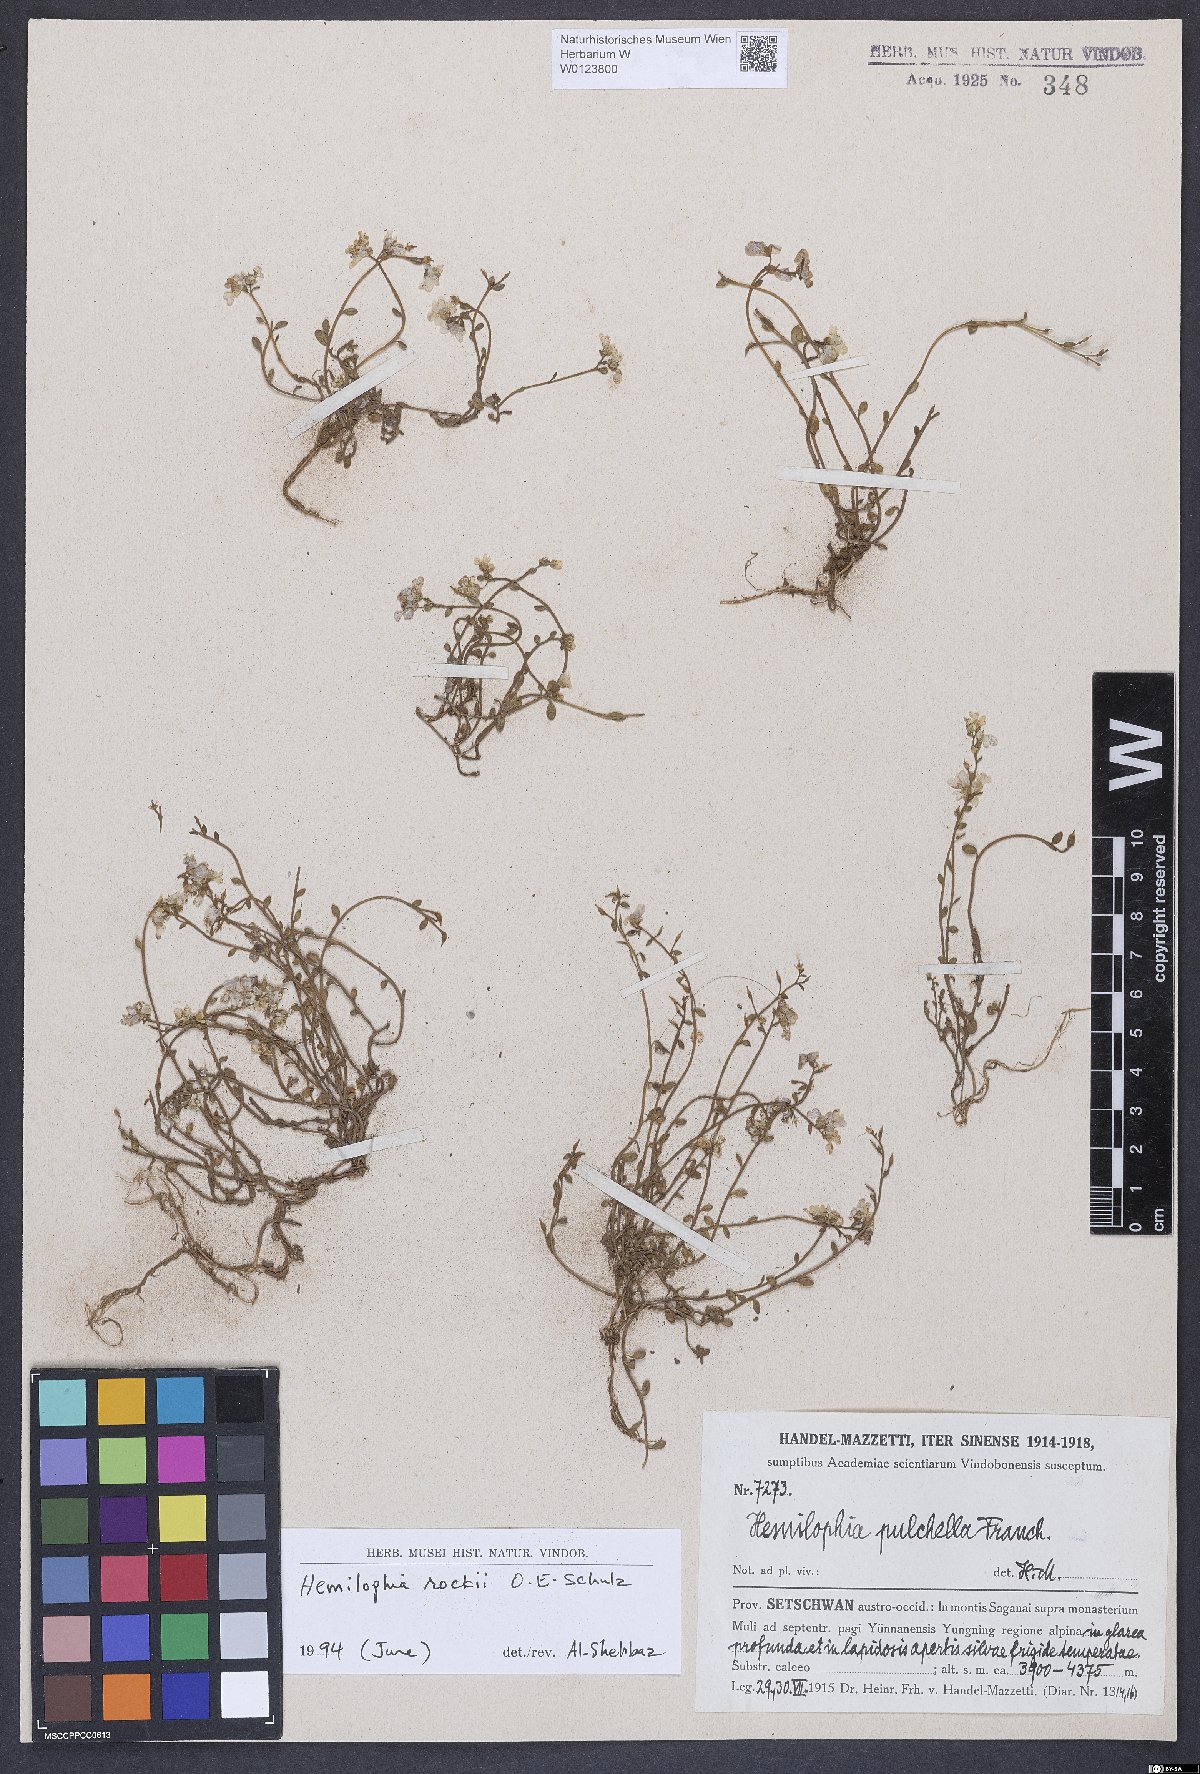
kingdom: Plantae
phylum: Tracheophyta
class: Magnoliopsida
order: Brassicales
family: Brassicaceae
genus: Hemilophia
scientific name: Hemilophia rockii
